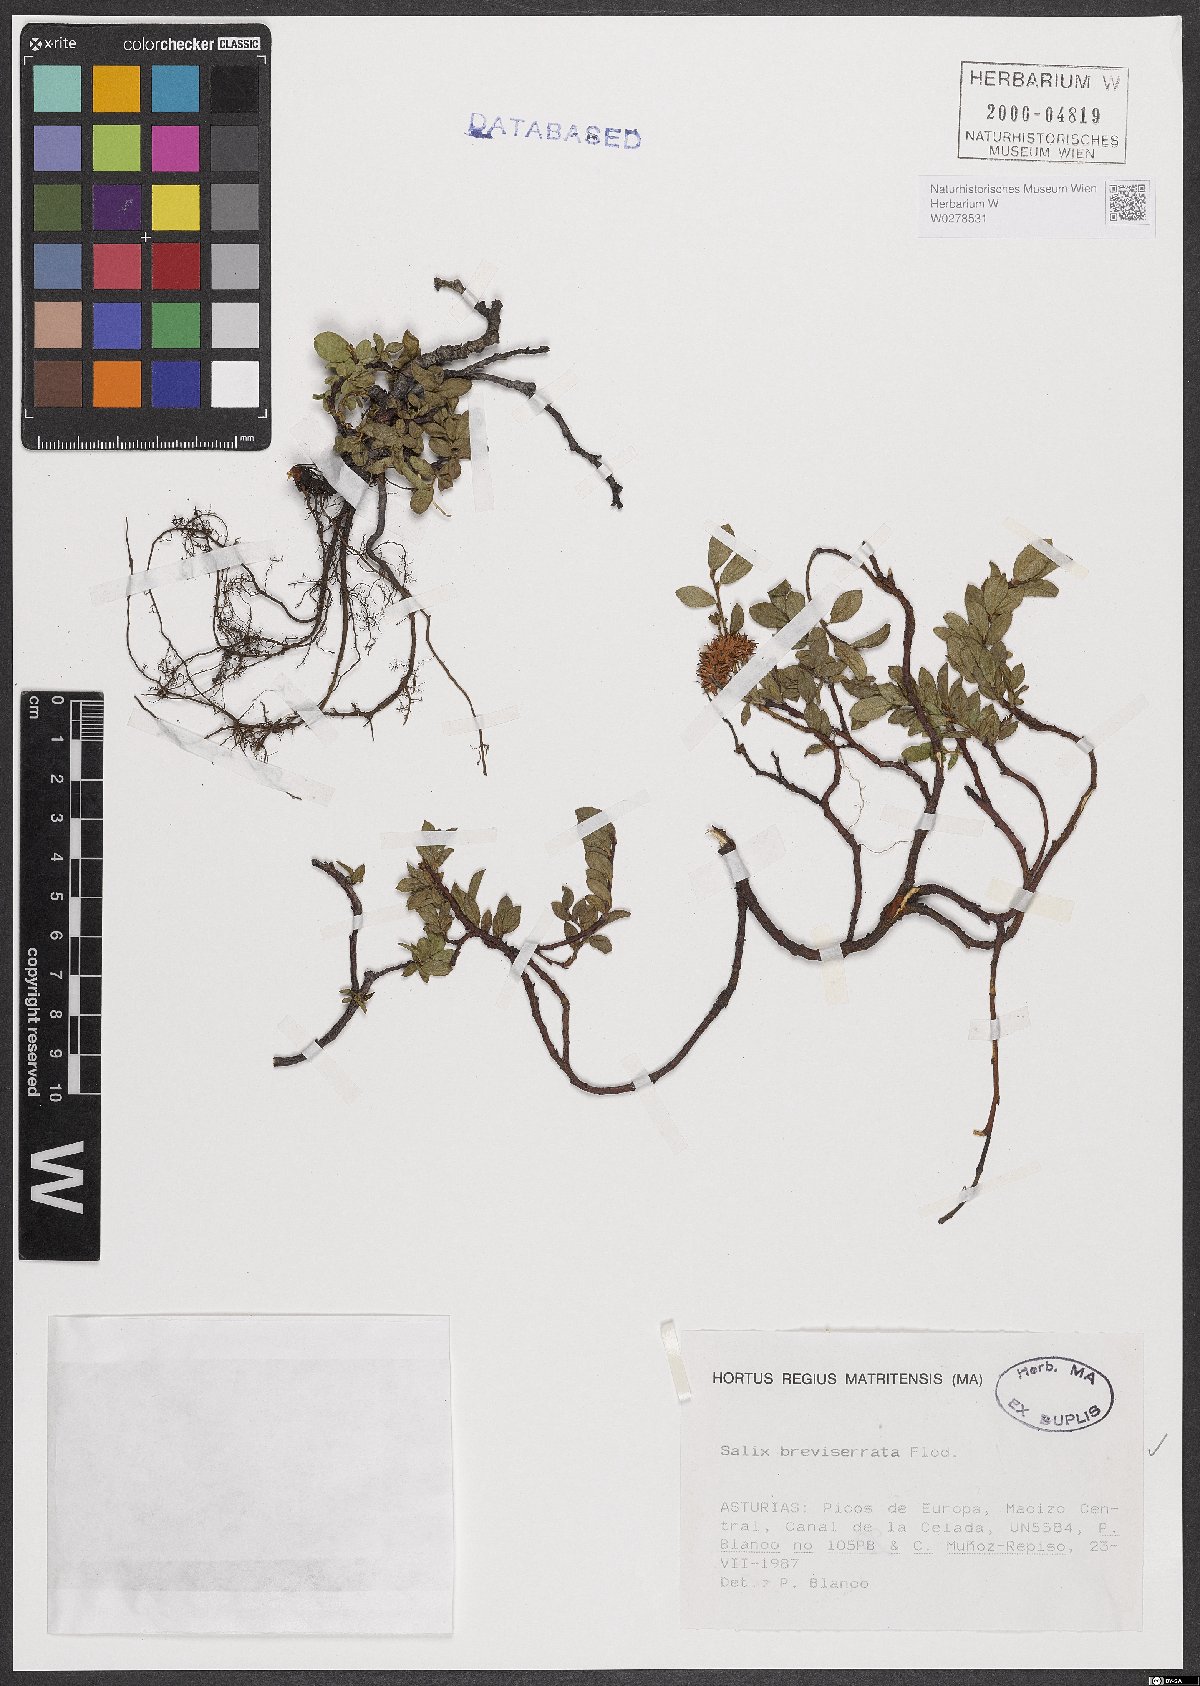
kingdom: Plantae
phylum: Tracheophyta
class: Magnoliopsida
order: Malpighiales
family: Salicaceae
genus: Salix
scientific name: Salix breviserrata
